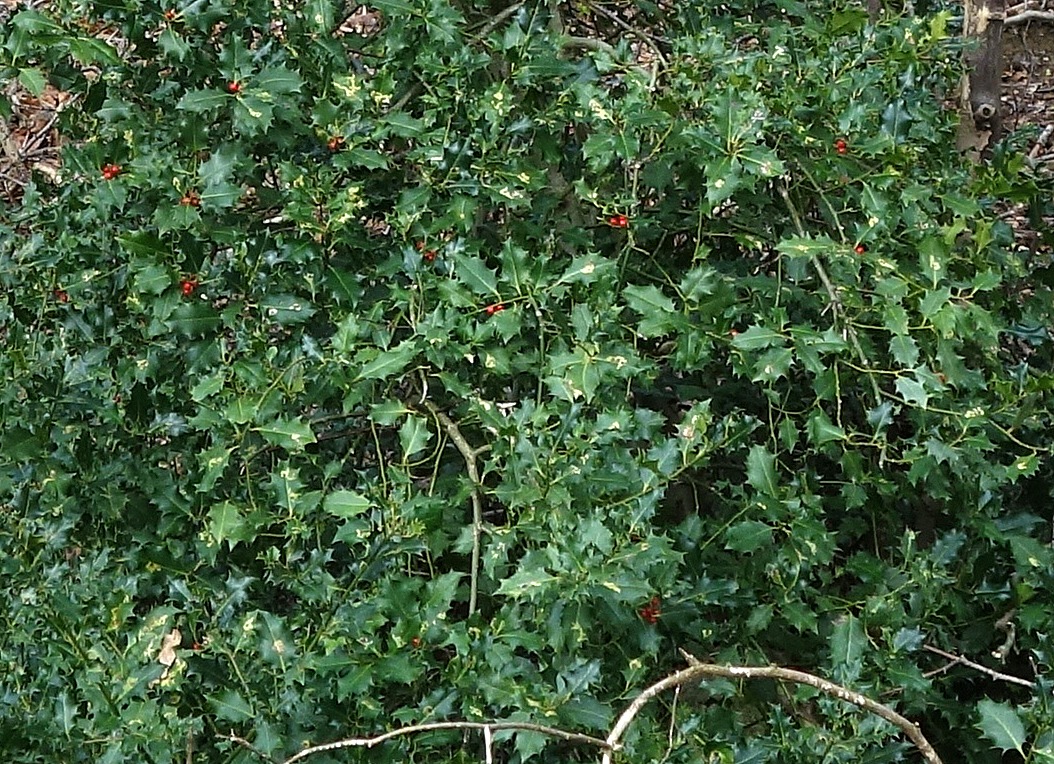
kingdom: Plantae
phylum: Tracheophyta
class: Magnoliopsida
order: Aquifoliales
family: Aquifoliaceae
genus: Ilex
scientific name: Ilex aquifolium
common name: Kristtorn
